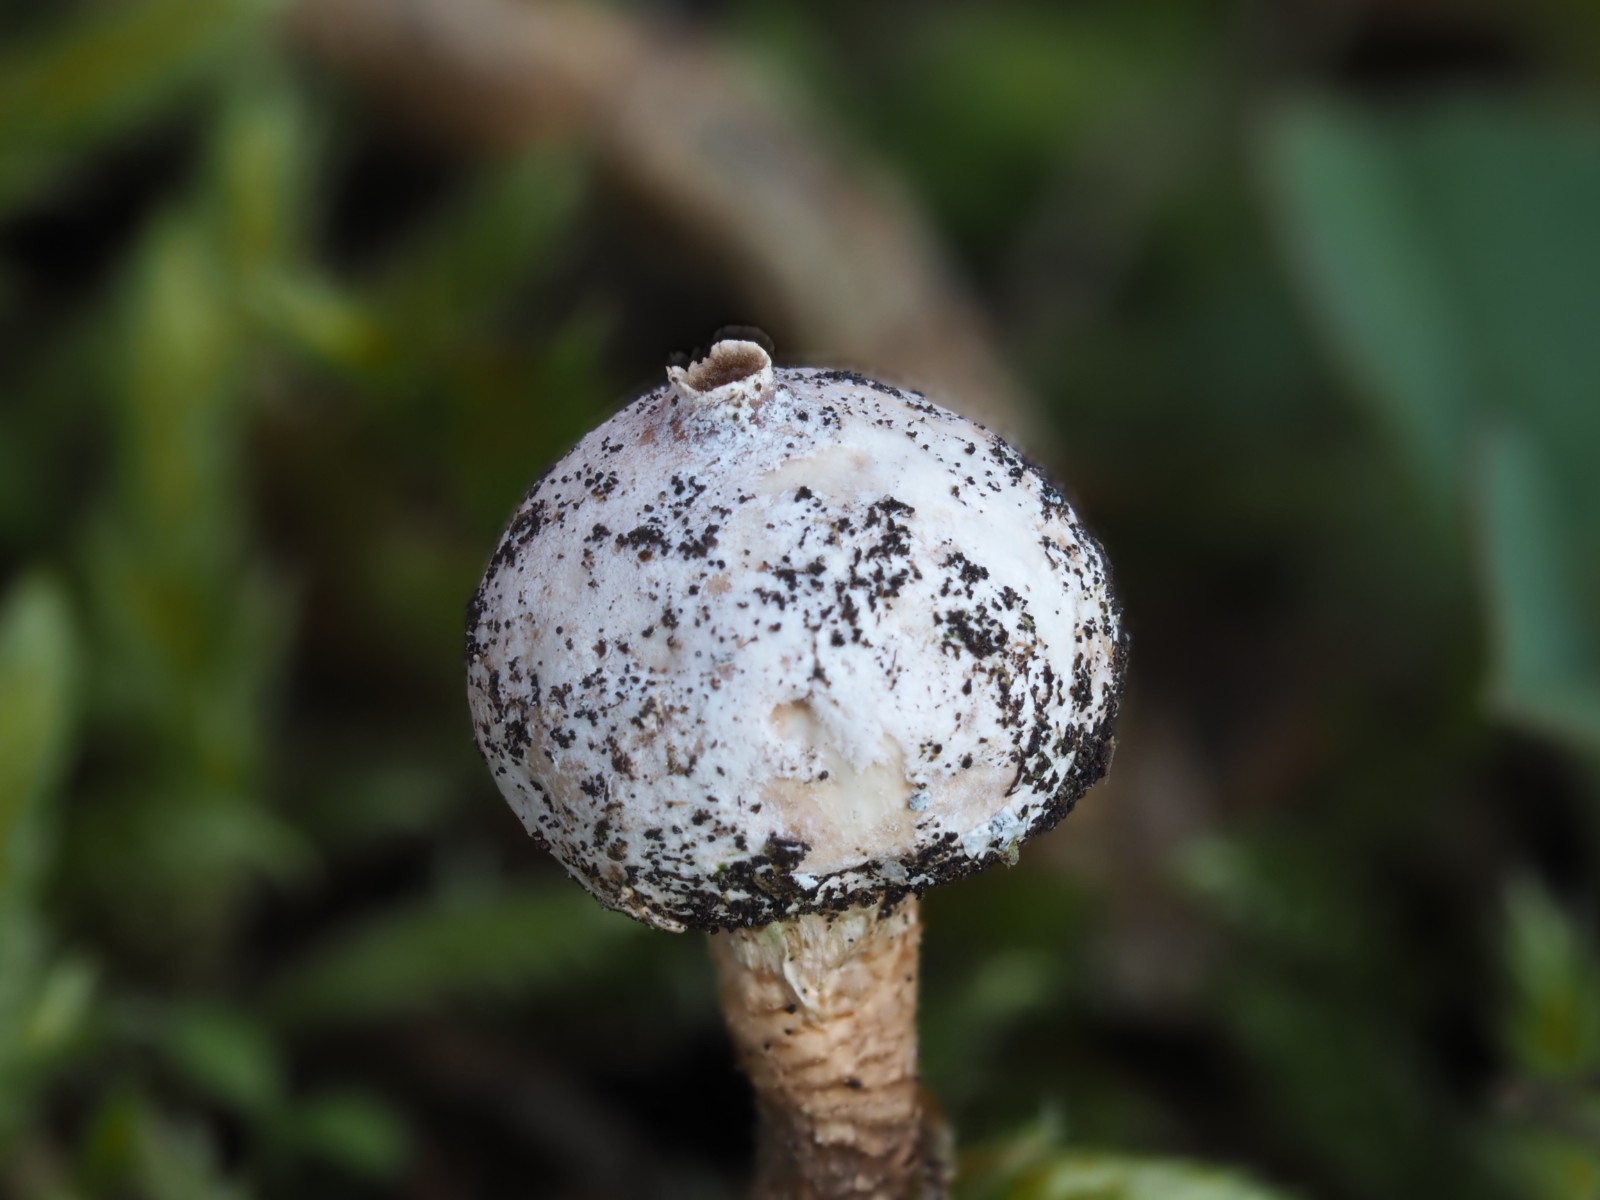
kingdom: Fungi
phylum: Basidiomycota
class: Agaricomycetes
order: Agaricales
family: Agaricaceae
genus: Tulostoma
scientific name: Tulostoma kotlabae
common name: gråhvid stilkbovist
